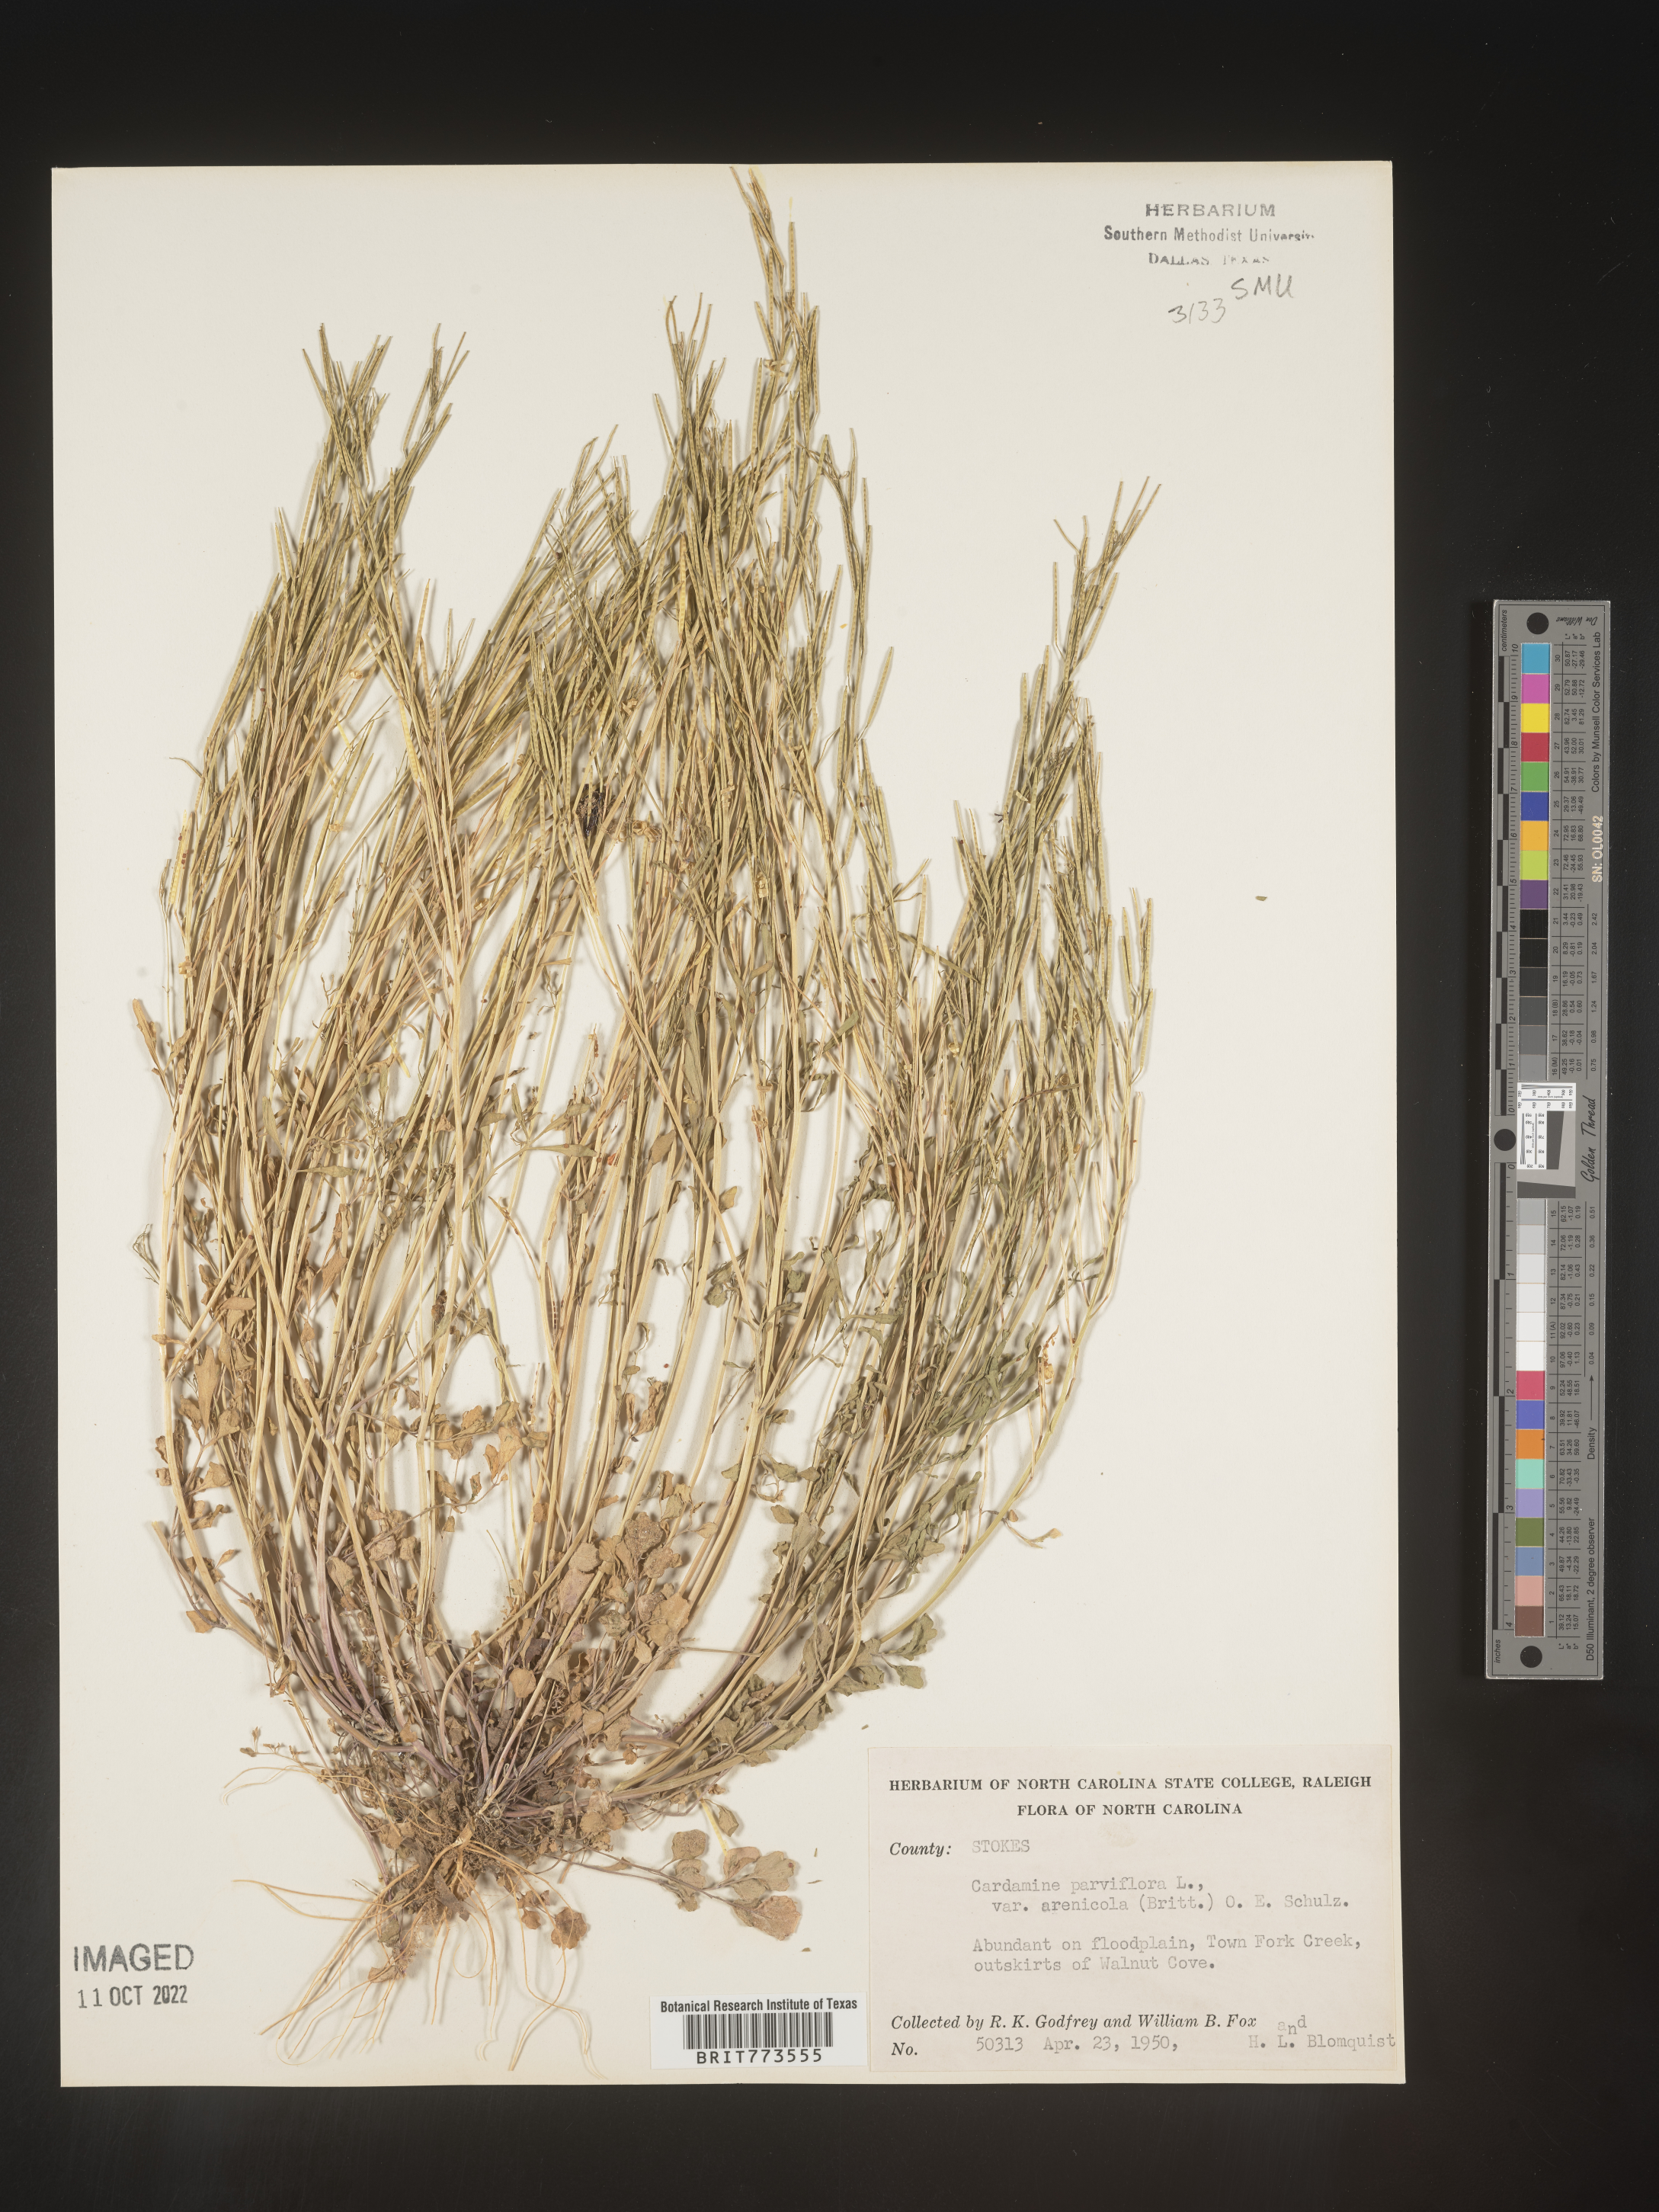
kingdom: Plantae
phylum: Tracheophyta
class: Magnoliopsida
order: Brassicales
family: Brassicaceae
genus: Cardamine
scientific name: Cardamine parviflora
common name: Sand bittercress
